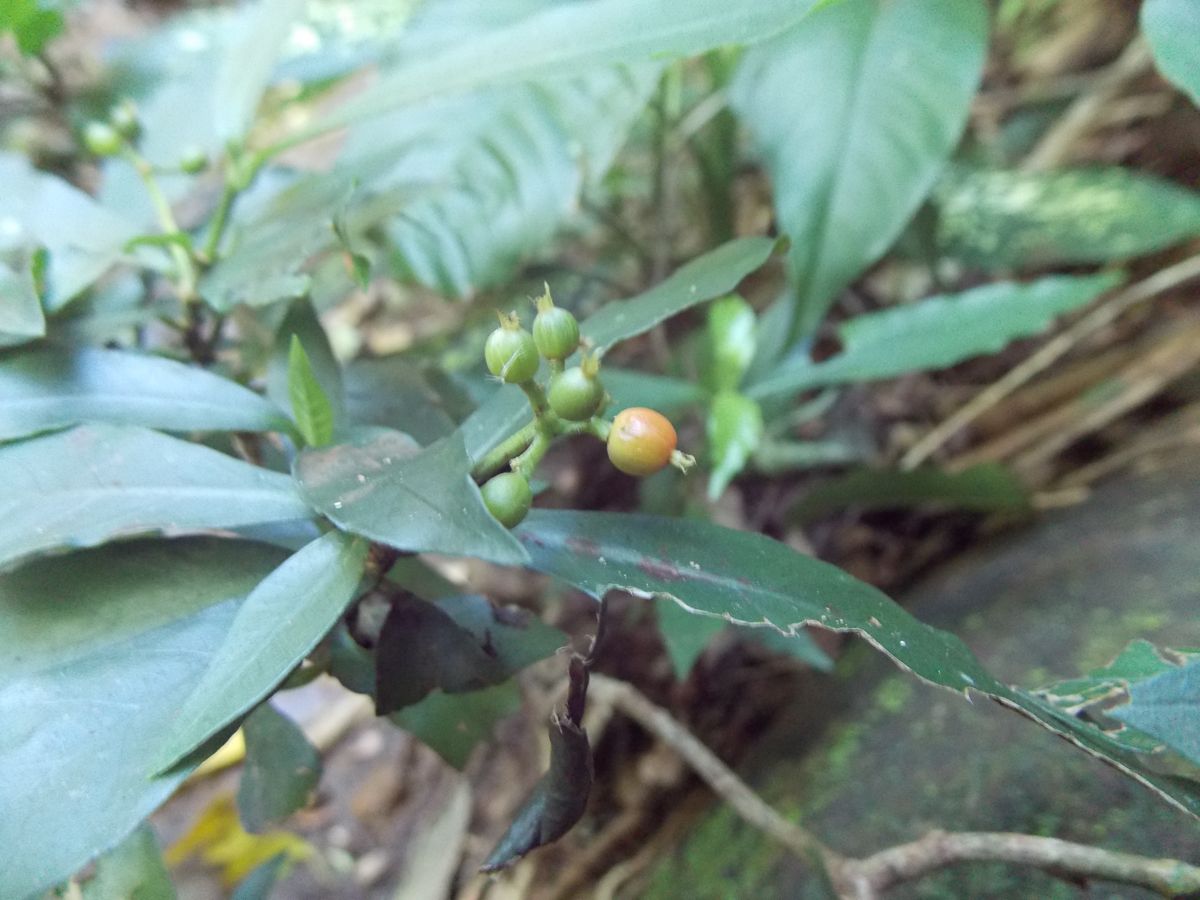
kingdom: Plantae
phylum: Tracheophyta
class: Magnoliopsida
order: Gentianales
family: Rubiaceae
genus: Psychotria
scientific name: Psychotria carthagenensis
